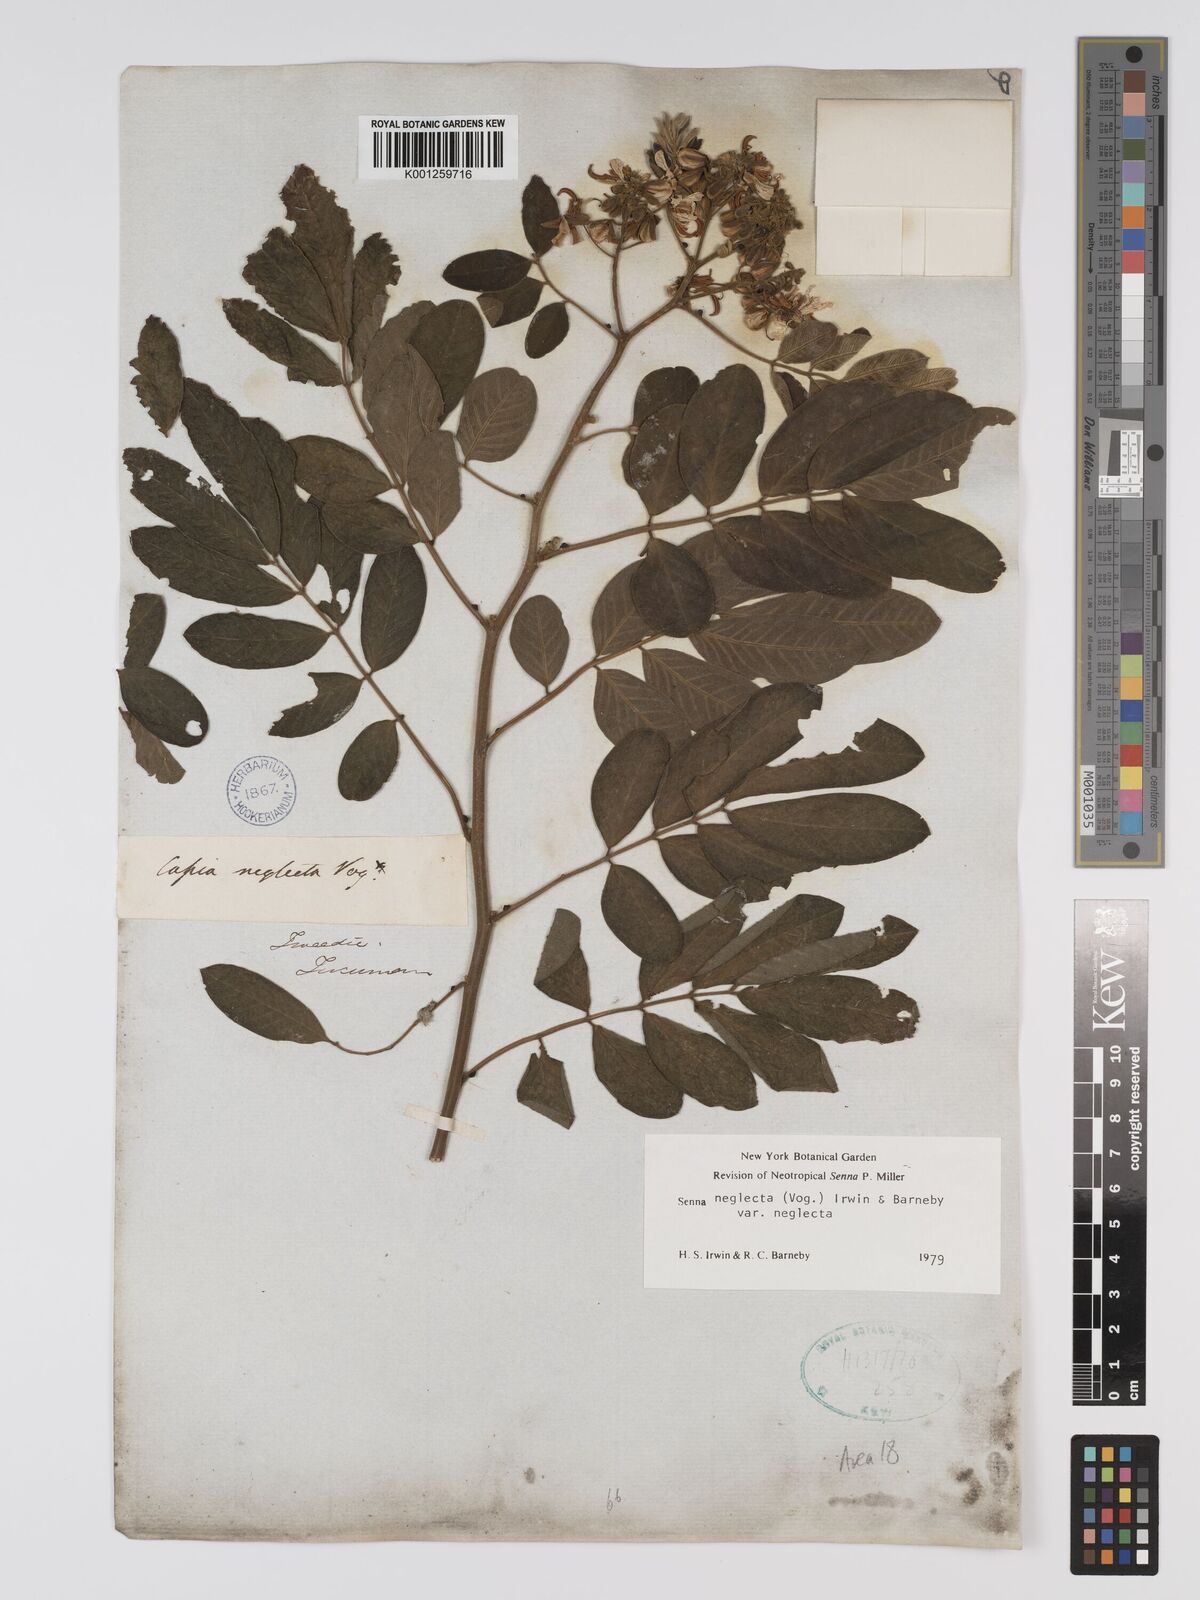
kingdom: Plantae
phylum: Tracheophyta
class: Magnoliopsida
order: Fabales
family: Fabaceae
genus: Senna
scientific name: Senna neglecta
